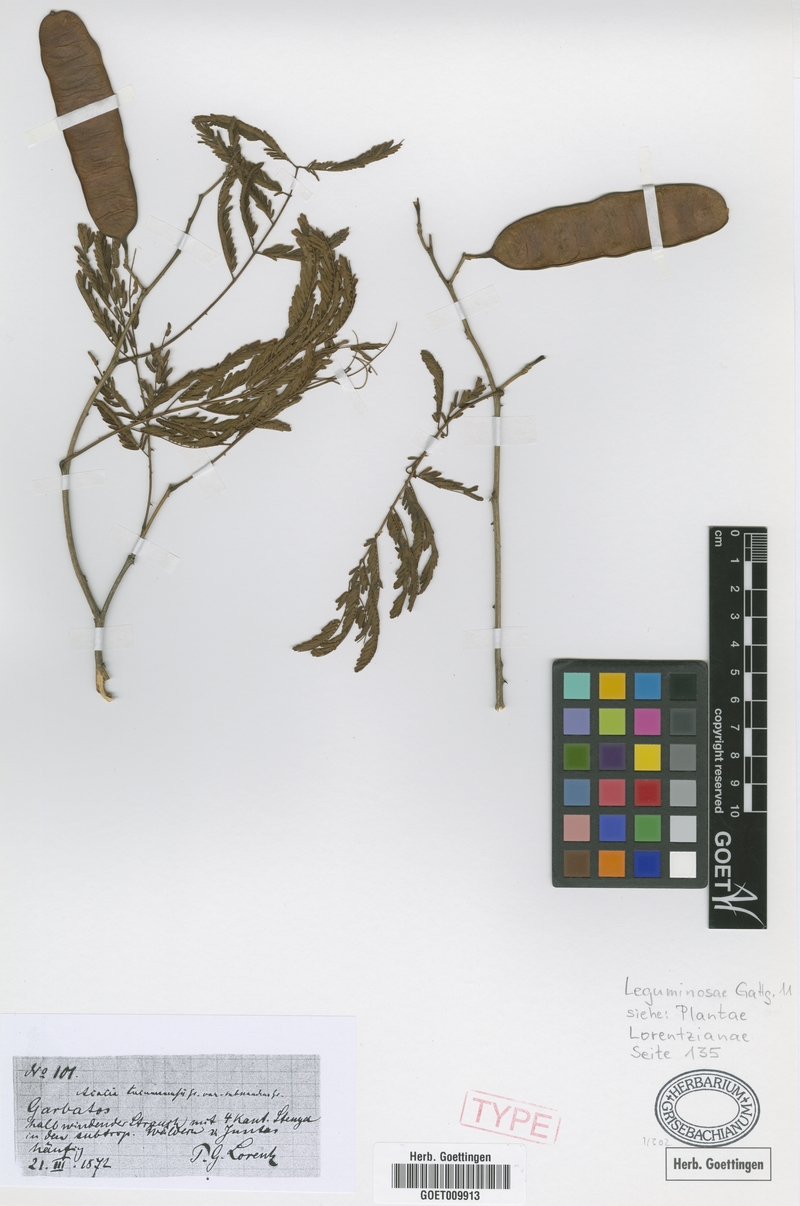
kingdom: Plantae
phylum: Tracheophyta
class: Magnoliopsida
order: Fabales
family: Fabaceae
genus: Senegalia
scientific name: Senegalia tucumanensis
